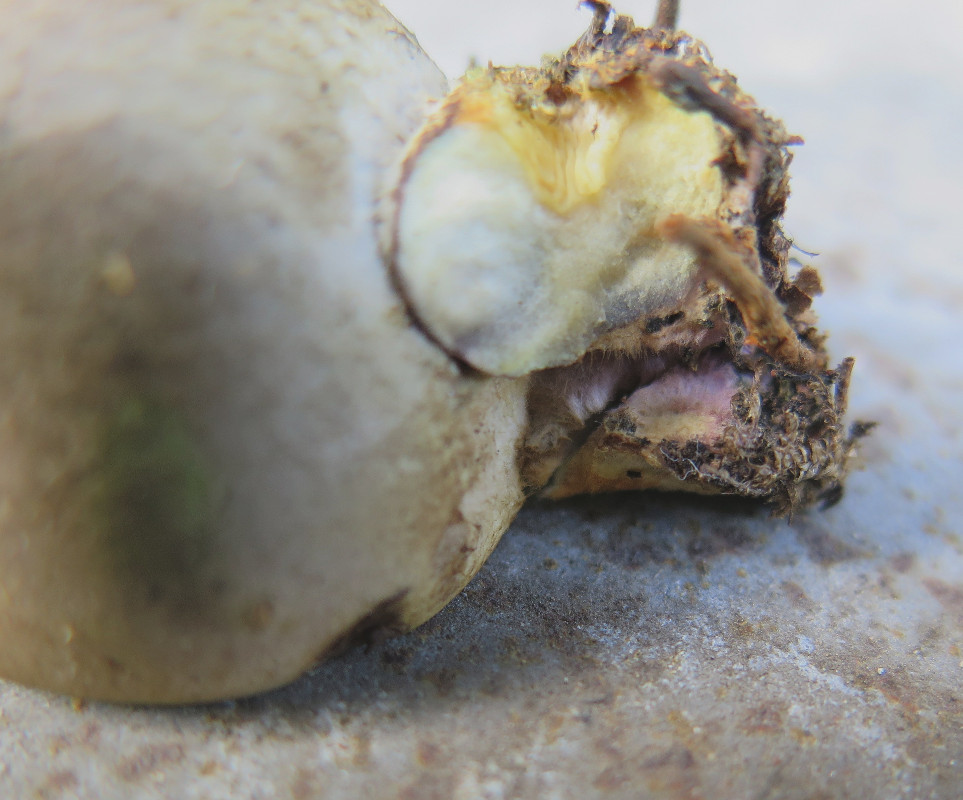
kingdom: Fungi
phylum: Basidiomycota
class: Agaricomycetes
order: Boletales
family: Tapinellaceae
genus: Tapinella
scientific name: Tapinella panuoides
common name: tømmer-viftesvamp
